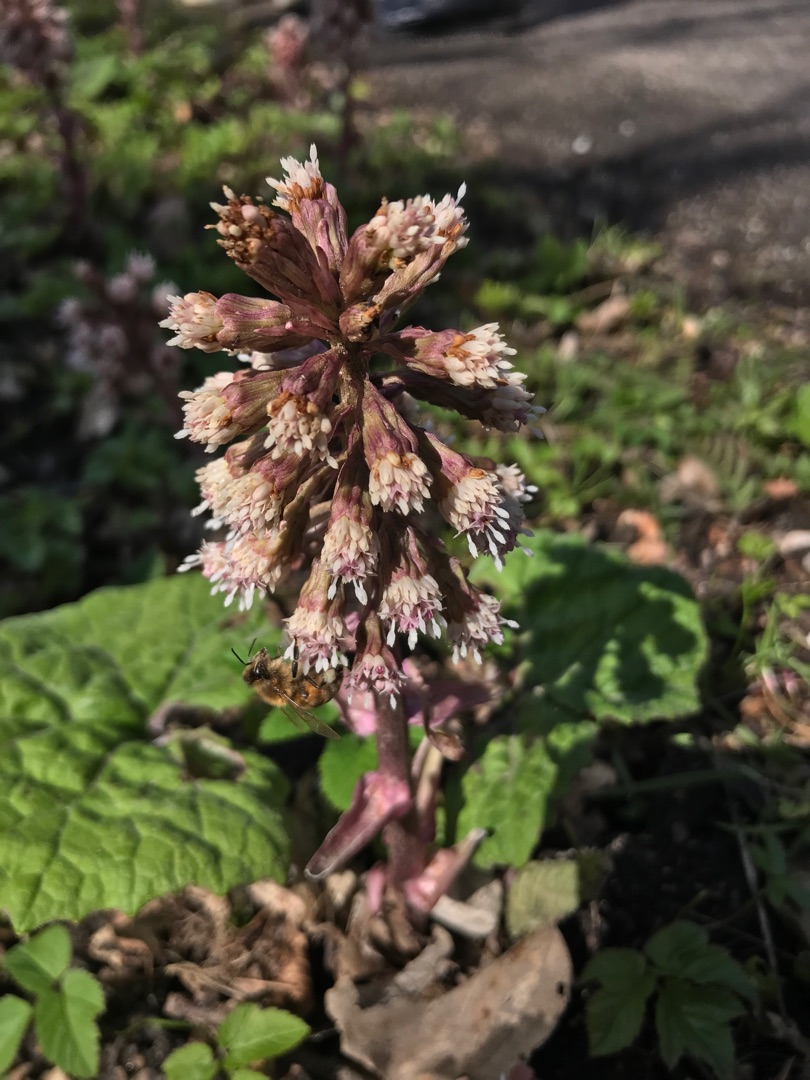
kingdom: Plantae
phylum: Tracheophyta
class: Magnoliopsida
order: Asterales
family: Asteraceae
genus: Petasites
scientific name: Petasites hybridus
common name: Rød hestehov
